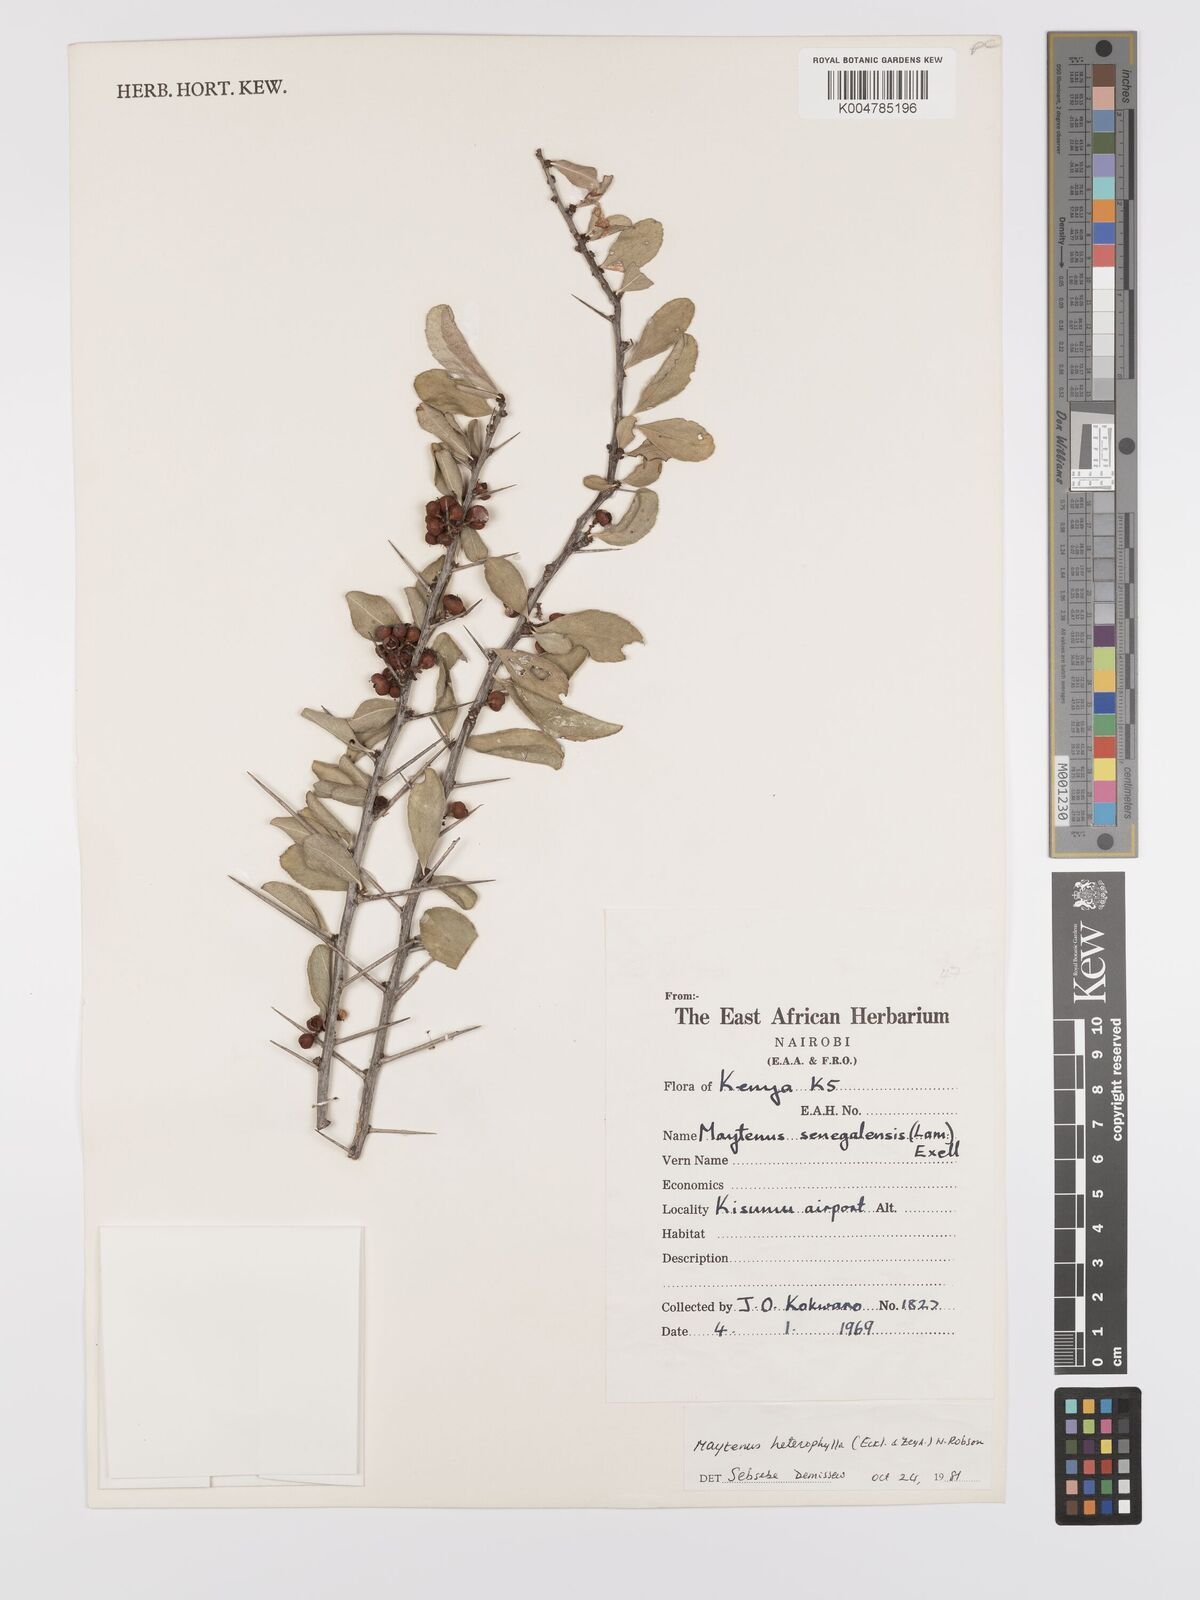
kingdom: Plantae
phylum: Tracheophyta
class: Magnoliopsida
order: Celastrales
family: Celastraceae
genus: Gymnosporia
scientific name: Gymnosporia heterophylla
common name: Angle-stem spikethorn
